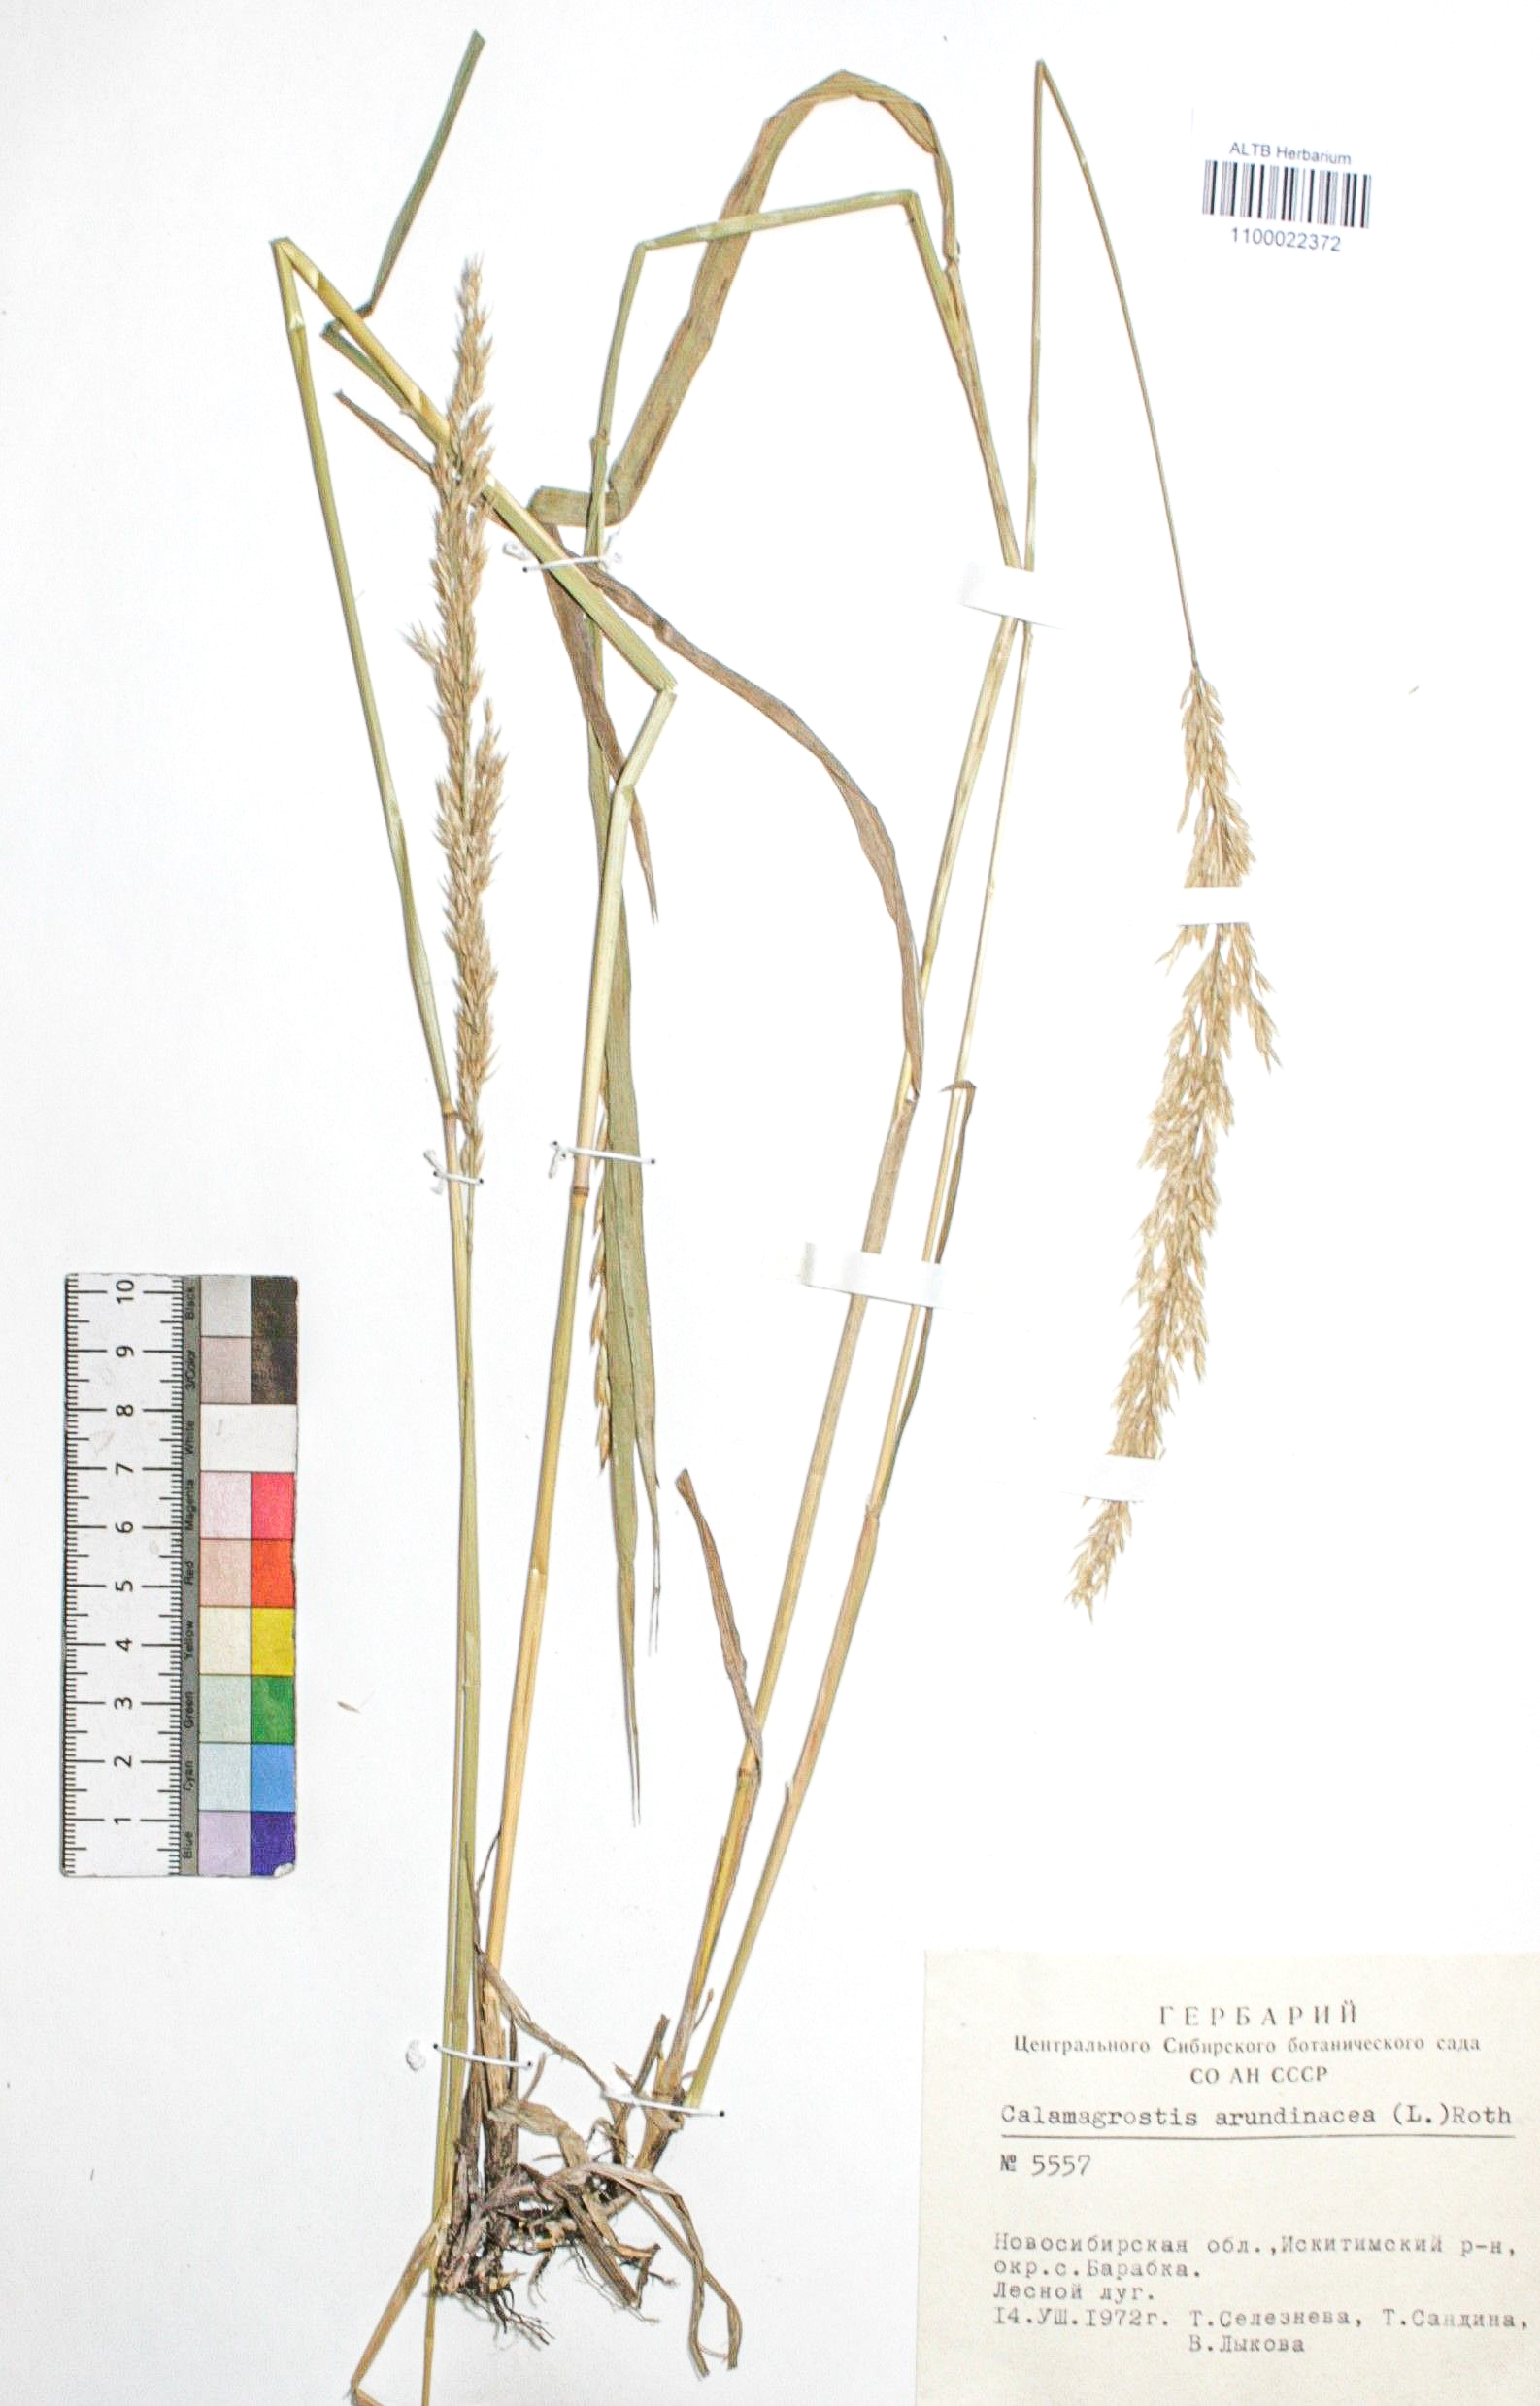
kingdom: Plantae
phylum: Tracheophyta
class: Liliopsida
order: Poales
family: Poaceae
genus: Calamagrostis
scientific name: Calamagrostis arundinacea
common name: Metskastik
